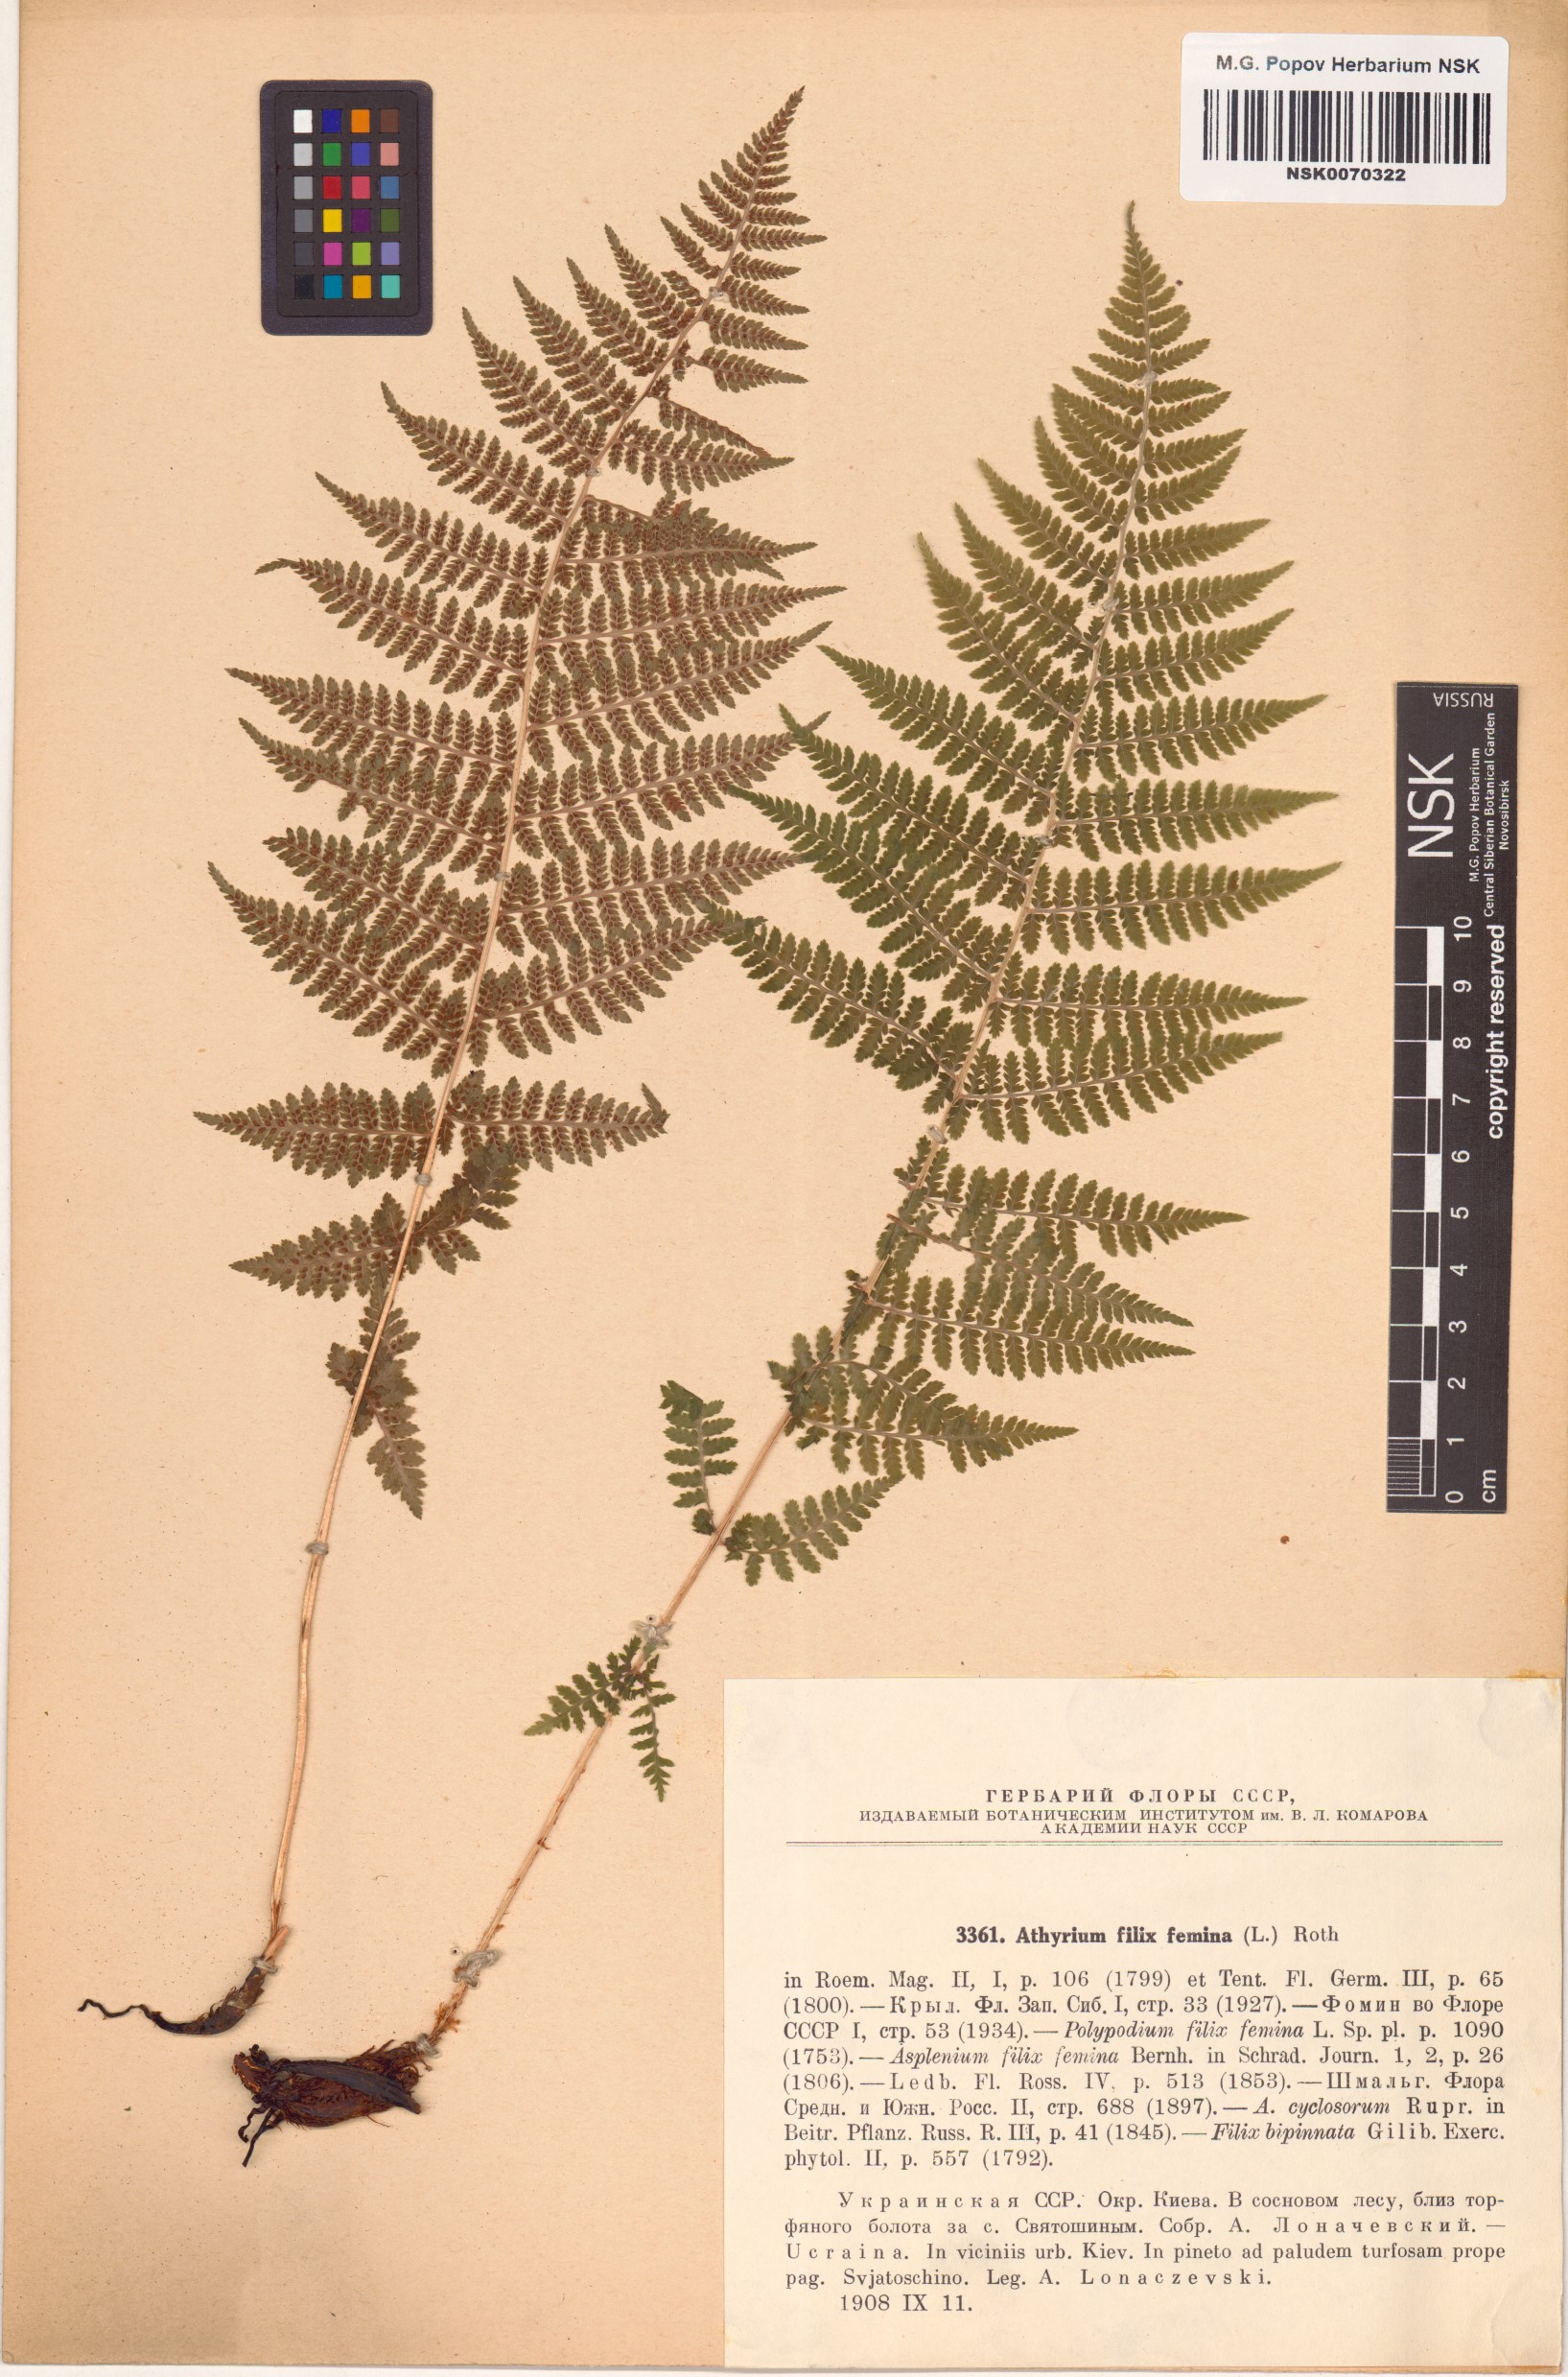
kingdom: Plantae
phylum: Tracheophyta
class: Polypodiopsida
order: Polypodiales
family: Athyriaceae
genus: Athyrium
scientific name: Athyrium filix-femina
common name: Lady fern
